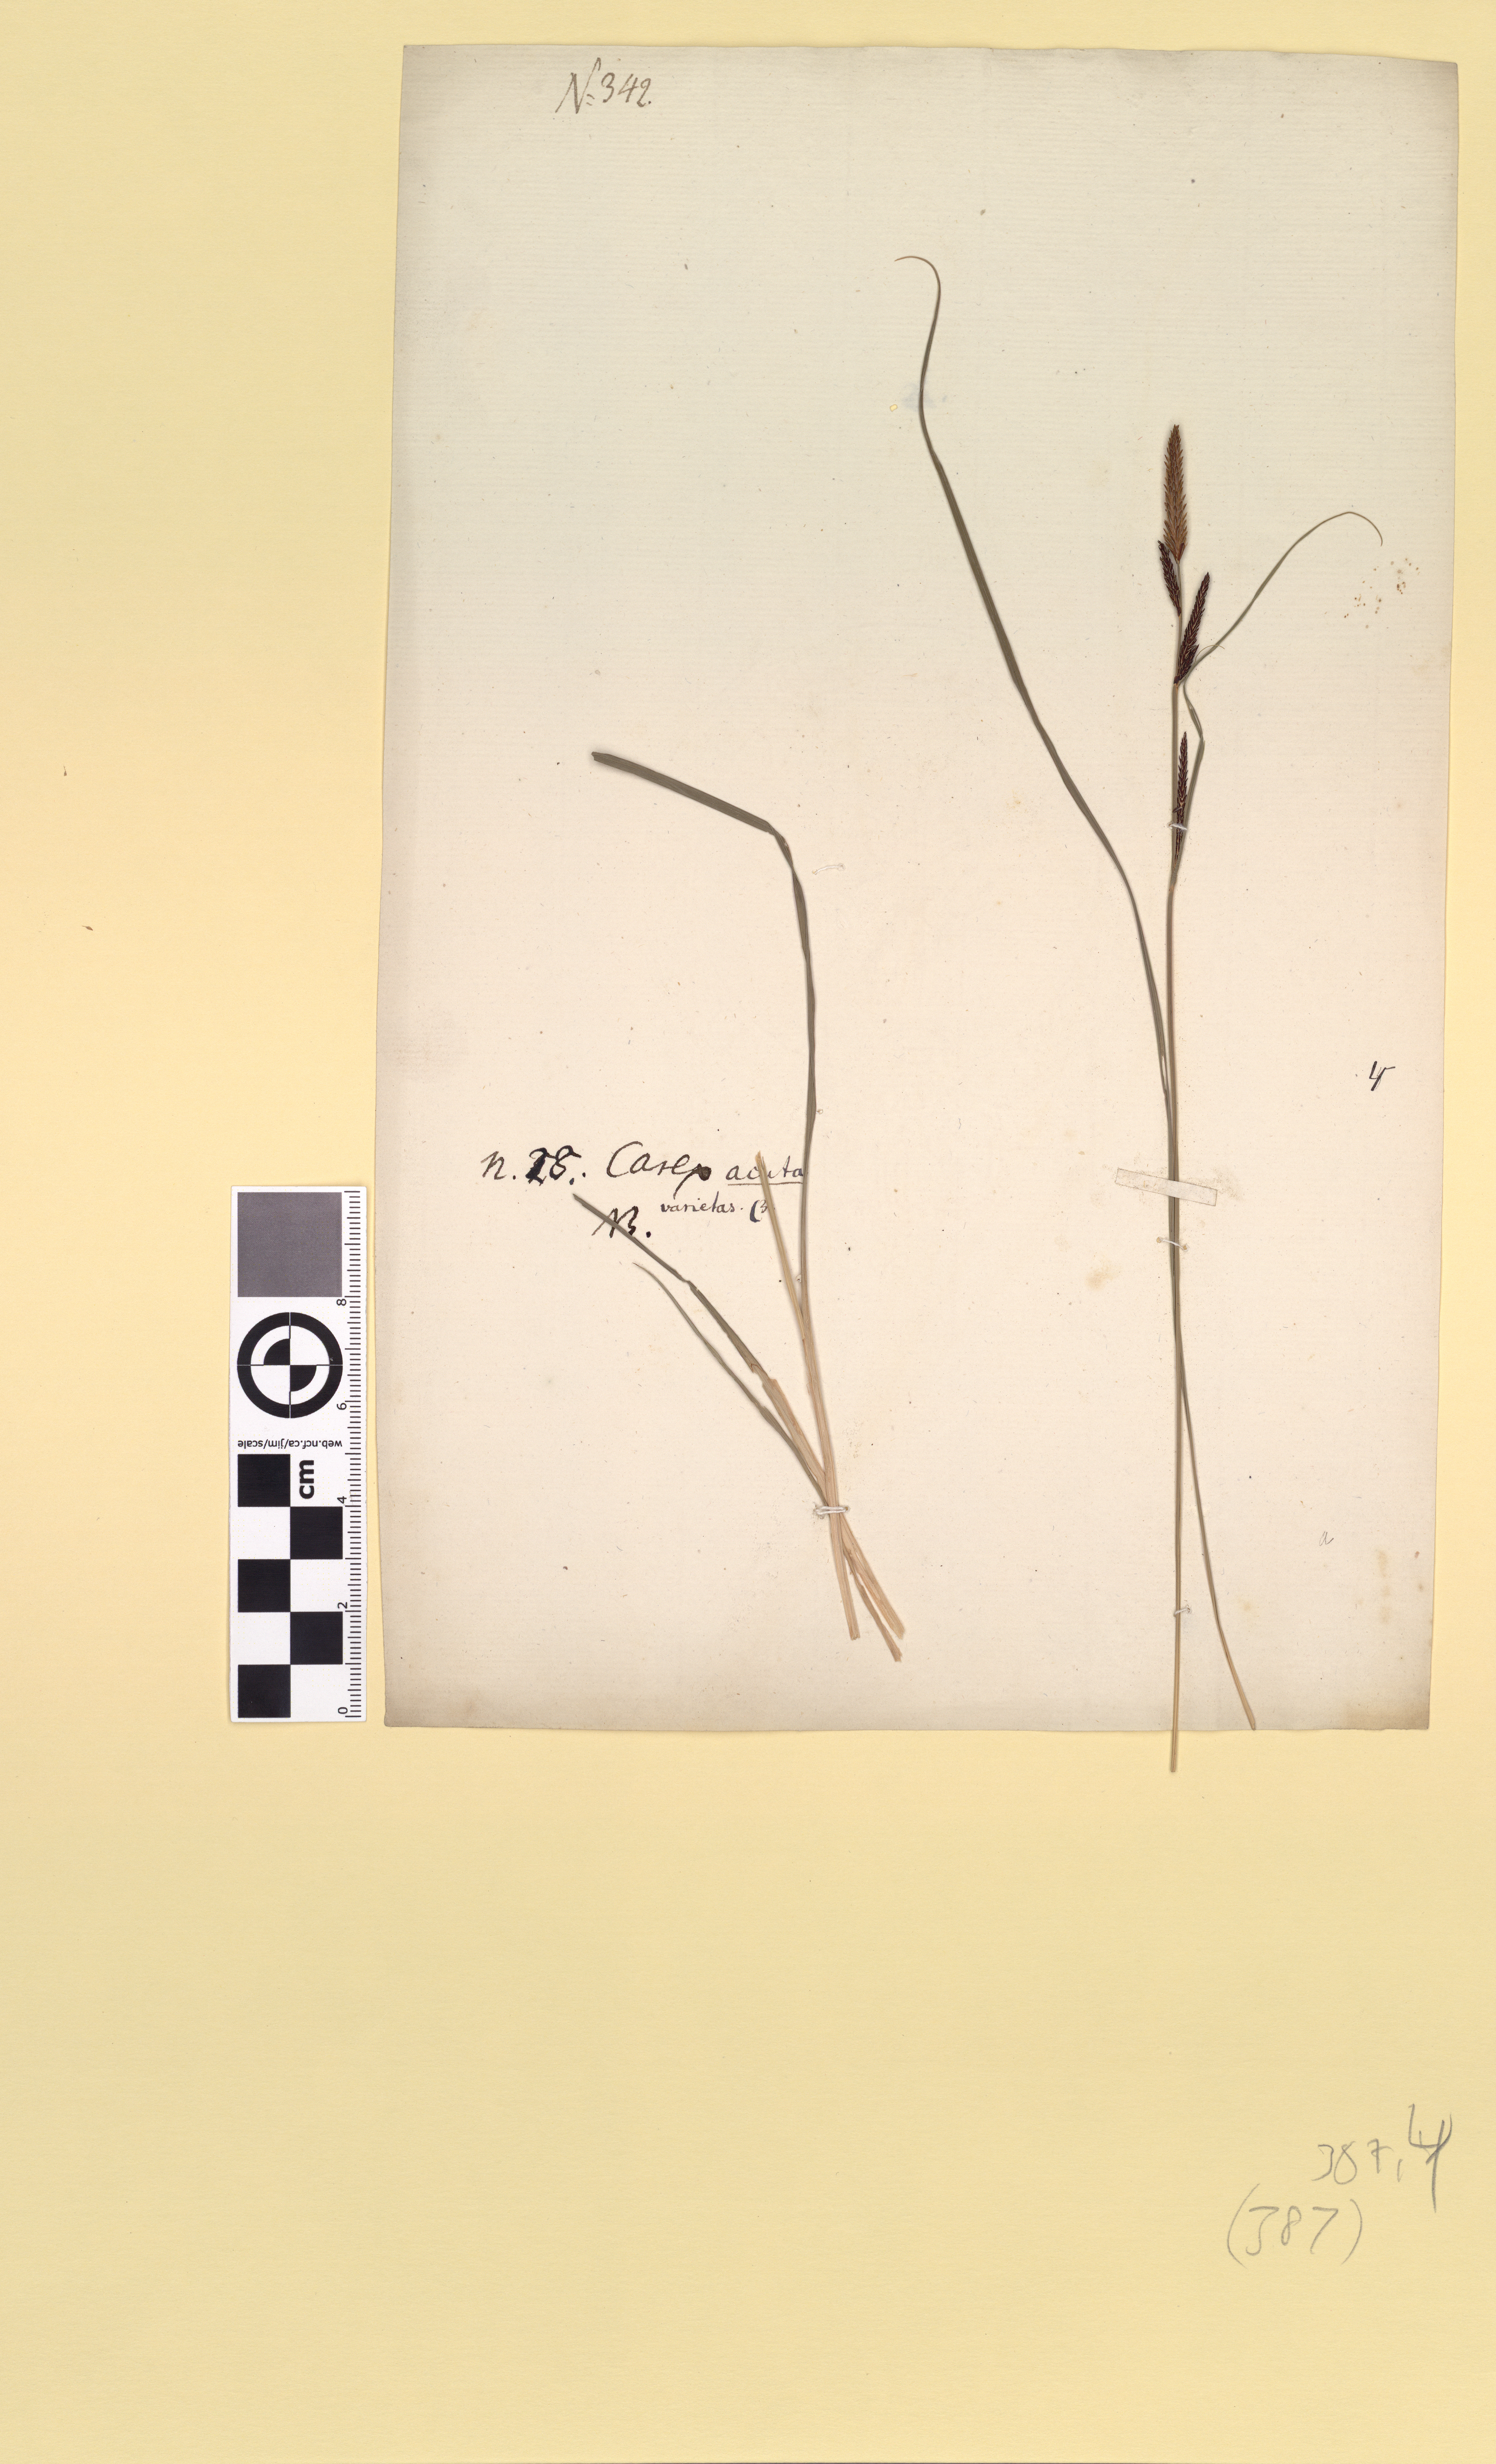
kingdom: Plantae
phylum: Tracheophyta
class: Liliopsida
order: Poales
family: Cyperaceae
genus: Carex
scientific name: Carex acuta
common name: Slender tufted-sedge
